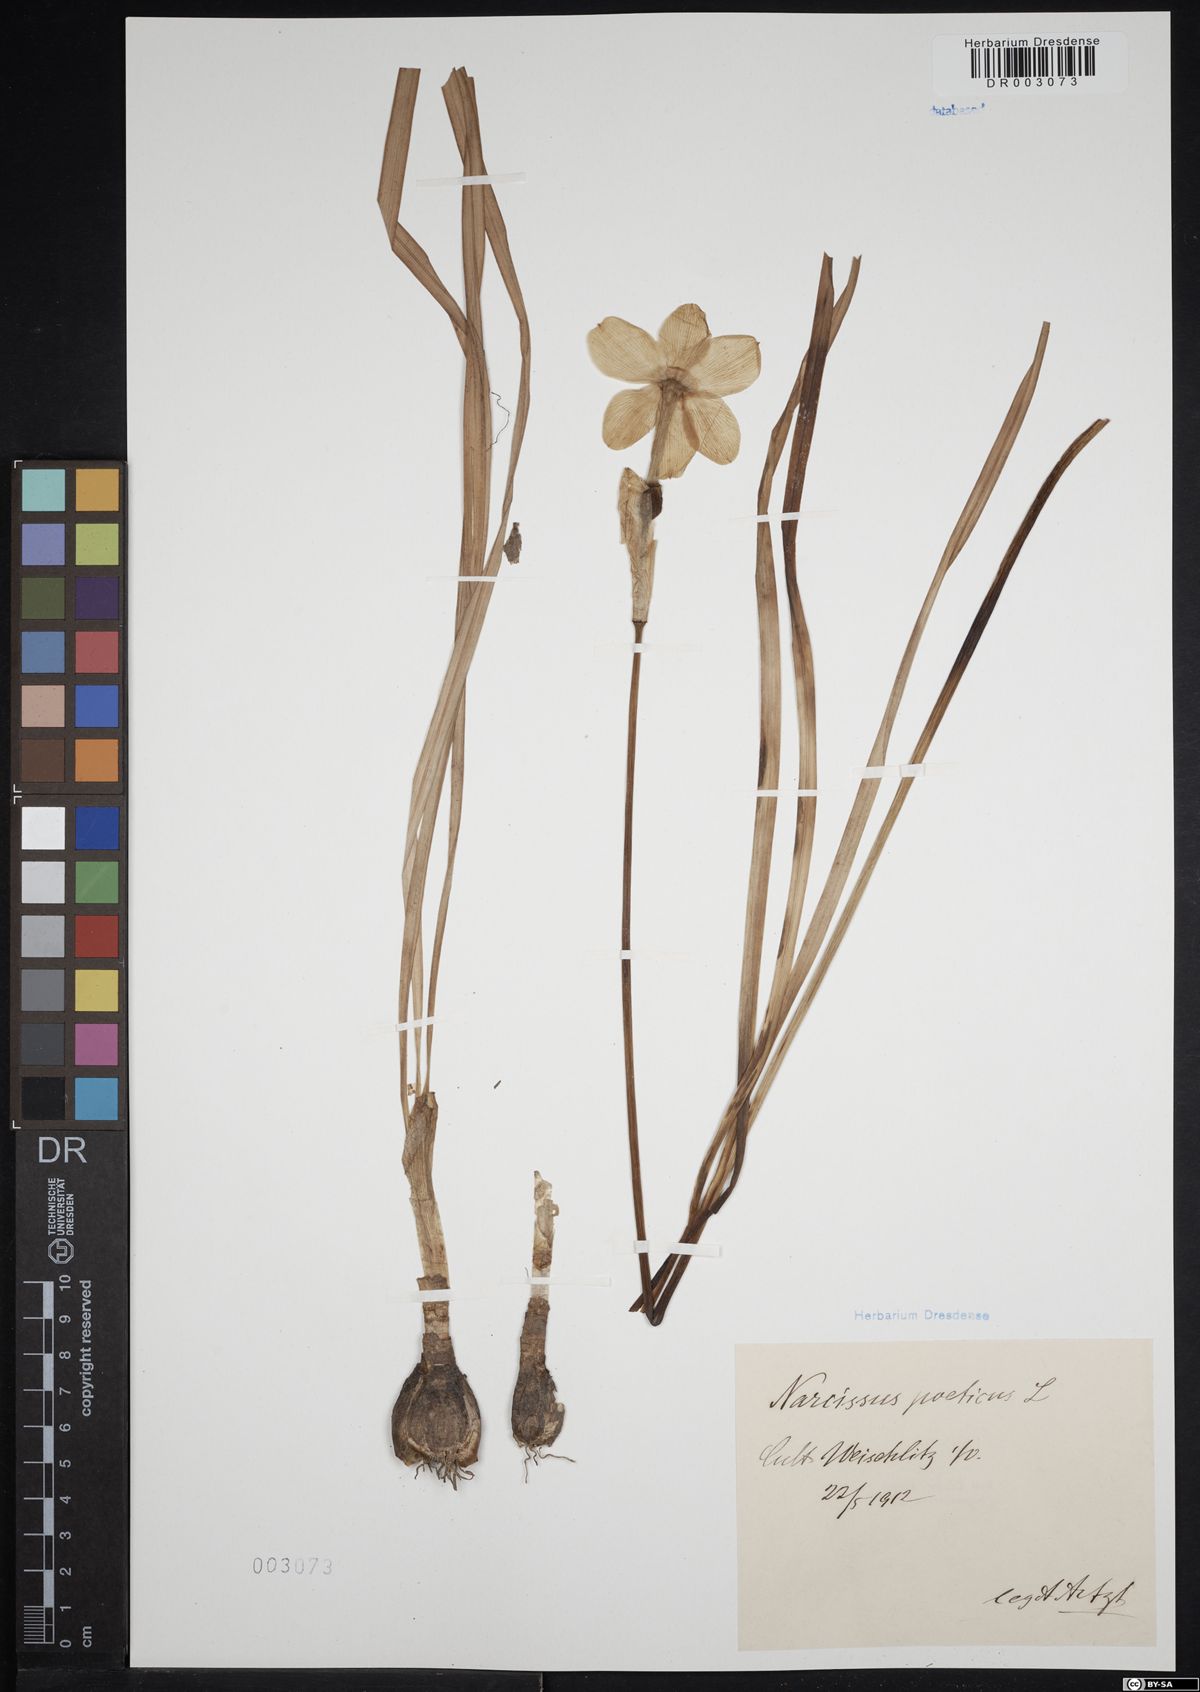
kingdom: Plantae
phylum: Tracheophyta
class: Liliopsida
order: Asparagales
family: Amaryllidaceae
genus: Narcissus
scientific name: Narcissus poeticus
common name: Pheasant's-eye daffodil
